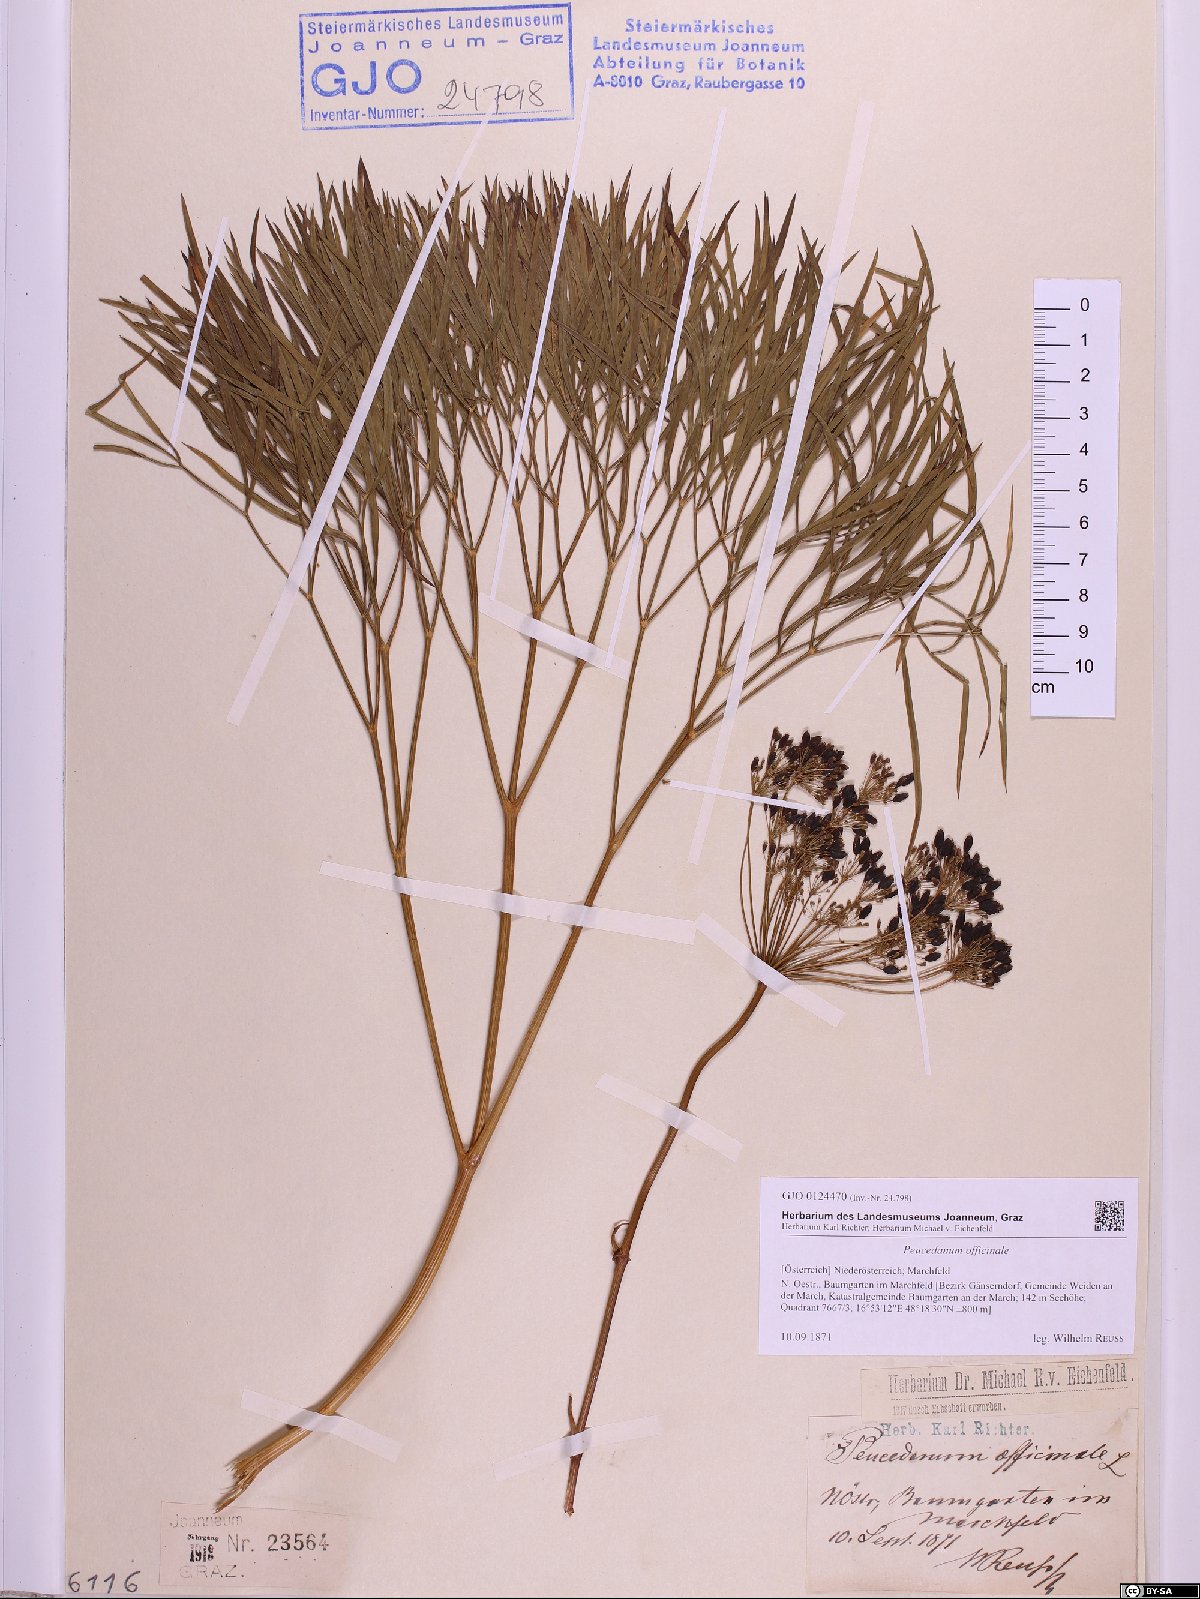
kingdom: Plantae
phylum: Tracheophyta
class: Magnoliopsida
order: Apiales
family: Apiaceae
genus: Peucedanum
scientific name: Peucedanum officinale
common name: Sulphurweed
